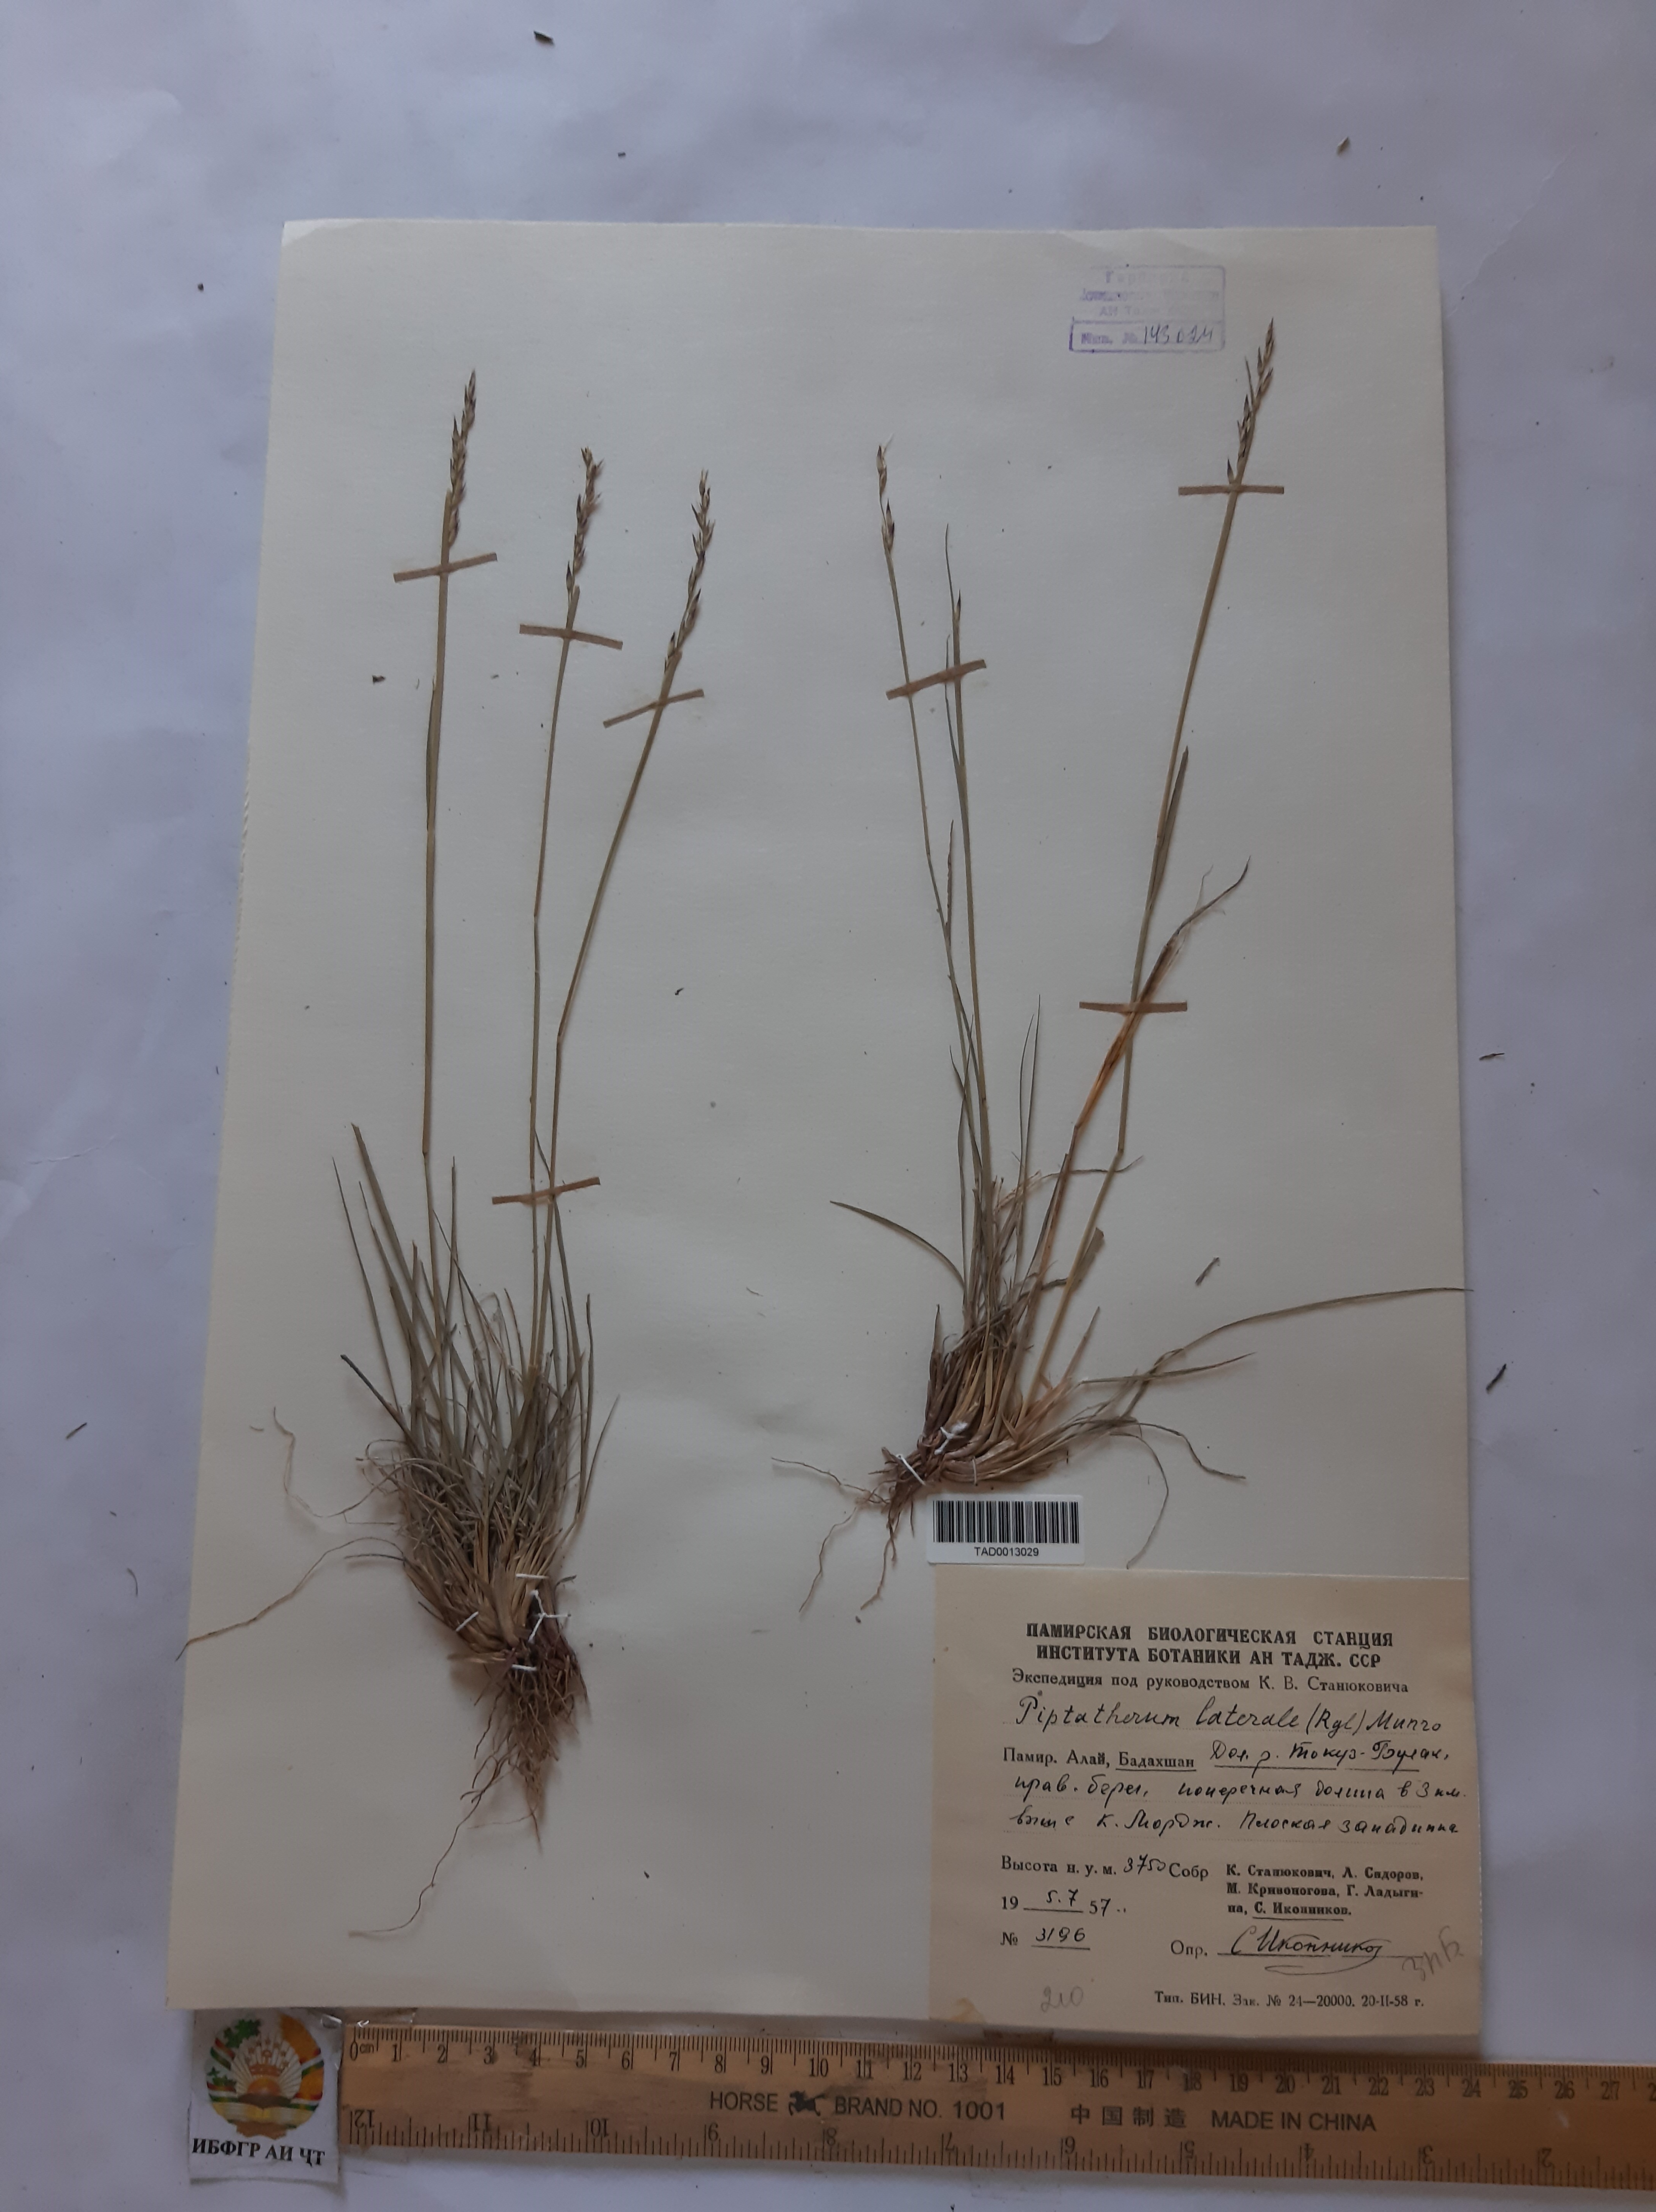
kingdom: Plantae
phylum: Tracheophyta
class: Liliopsida
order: Poales
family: Poaceae
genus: Piptatherum
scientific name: Piptatherum laterale
